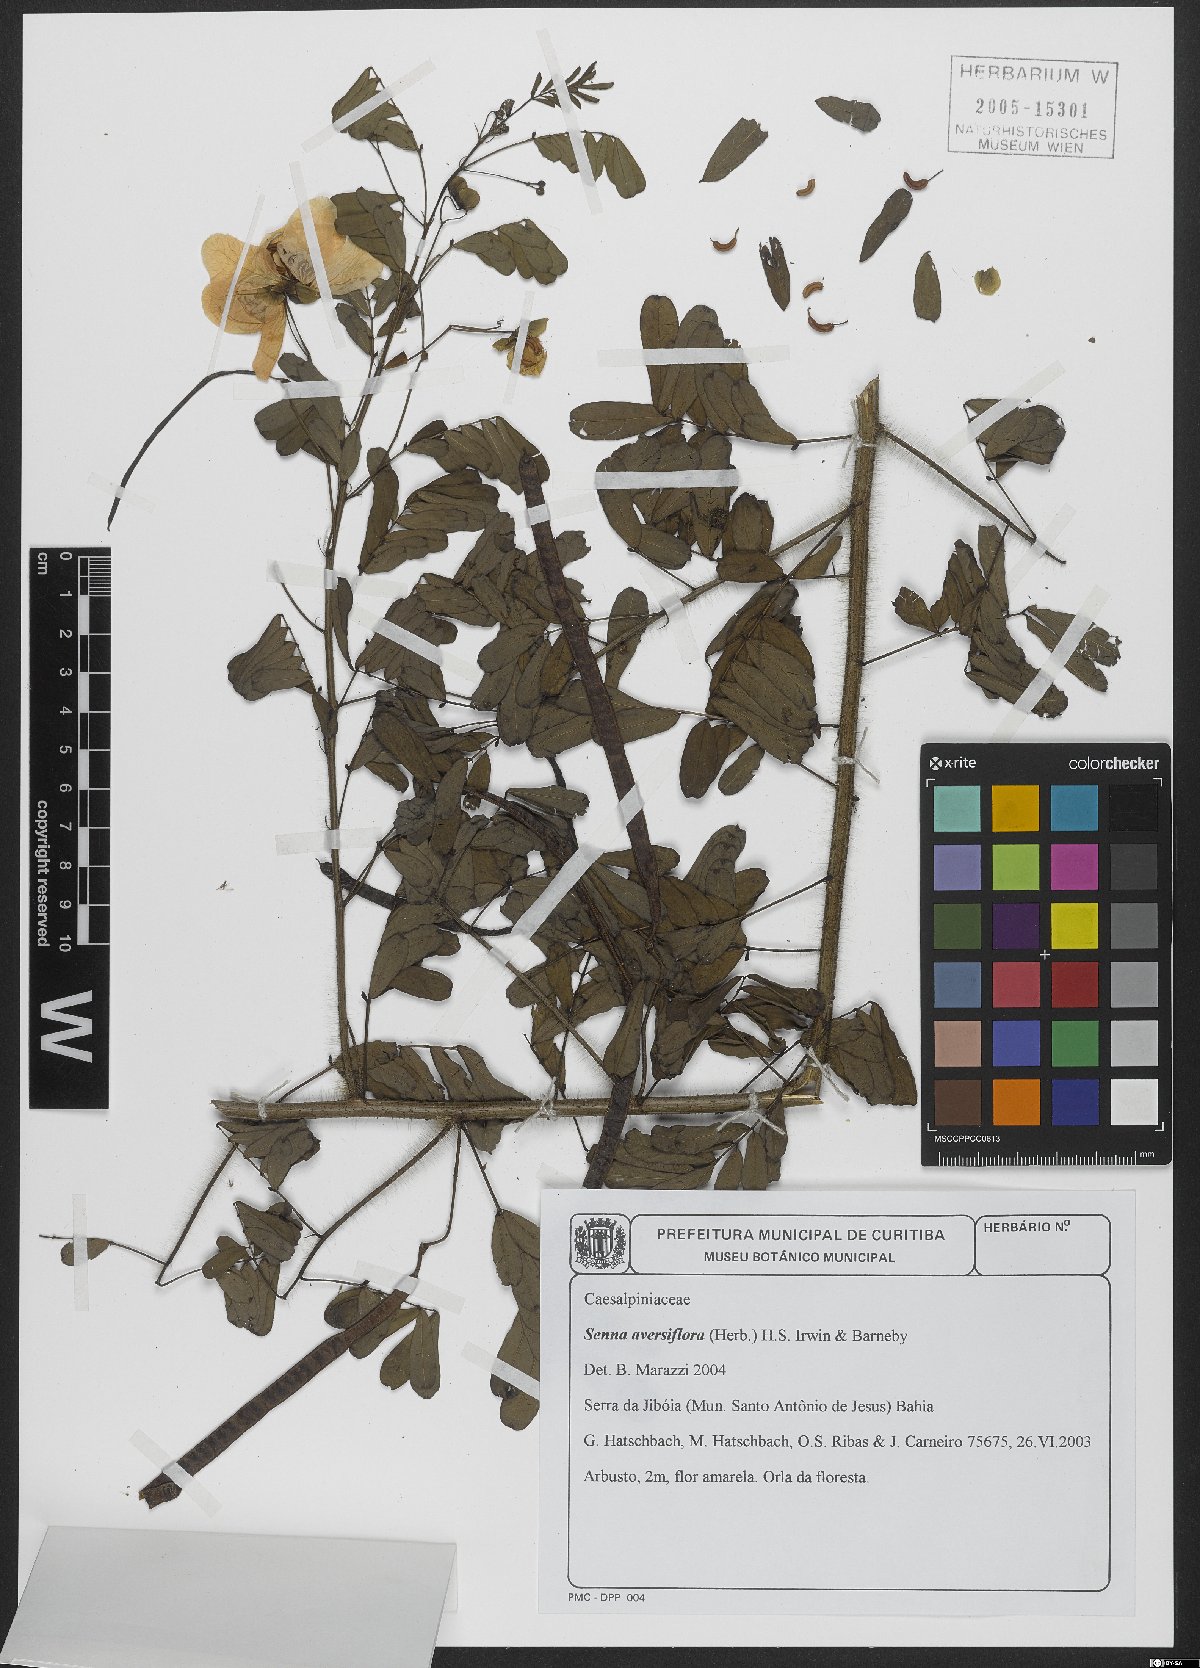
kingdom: Plantae
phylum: Tracheophyta
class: Magnoliopsida
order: Fabales
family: Fabaceae
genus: Senna
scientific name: Senna aversiflora
